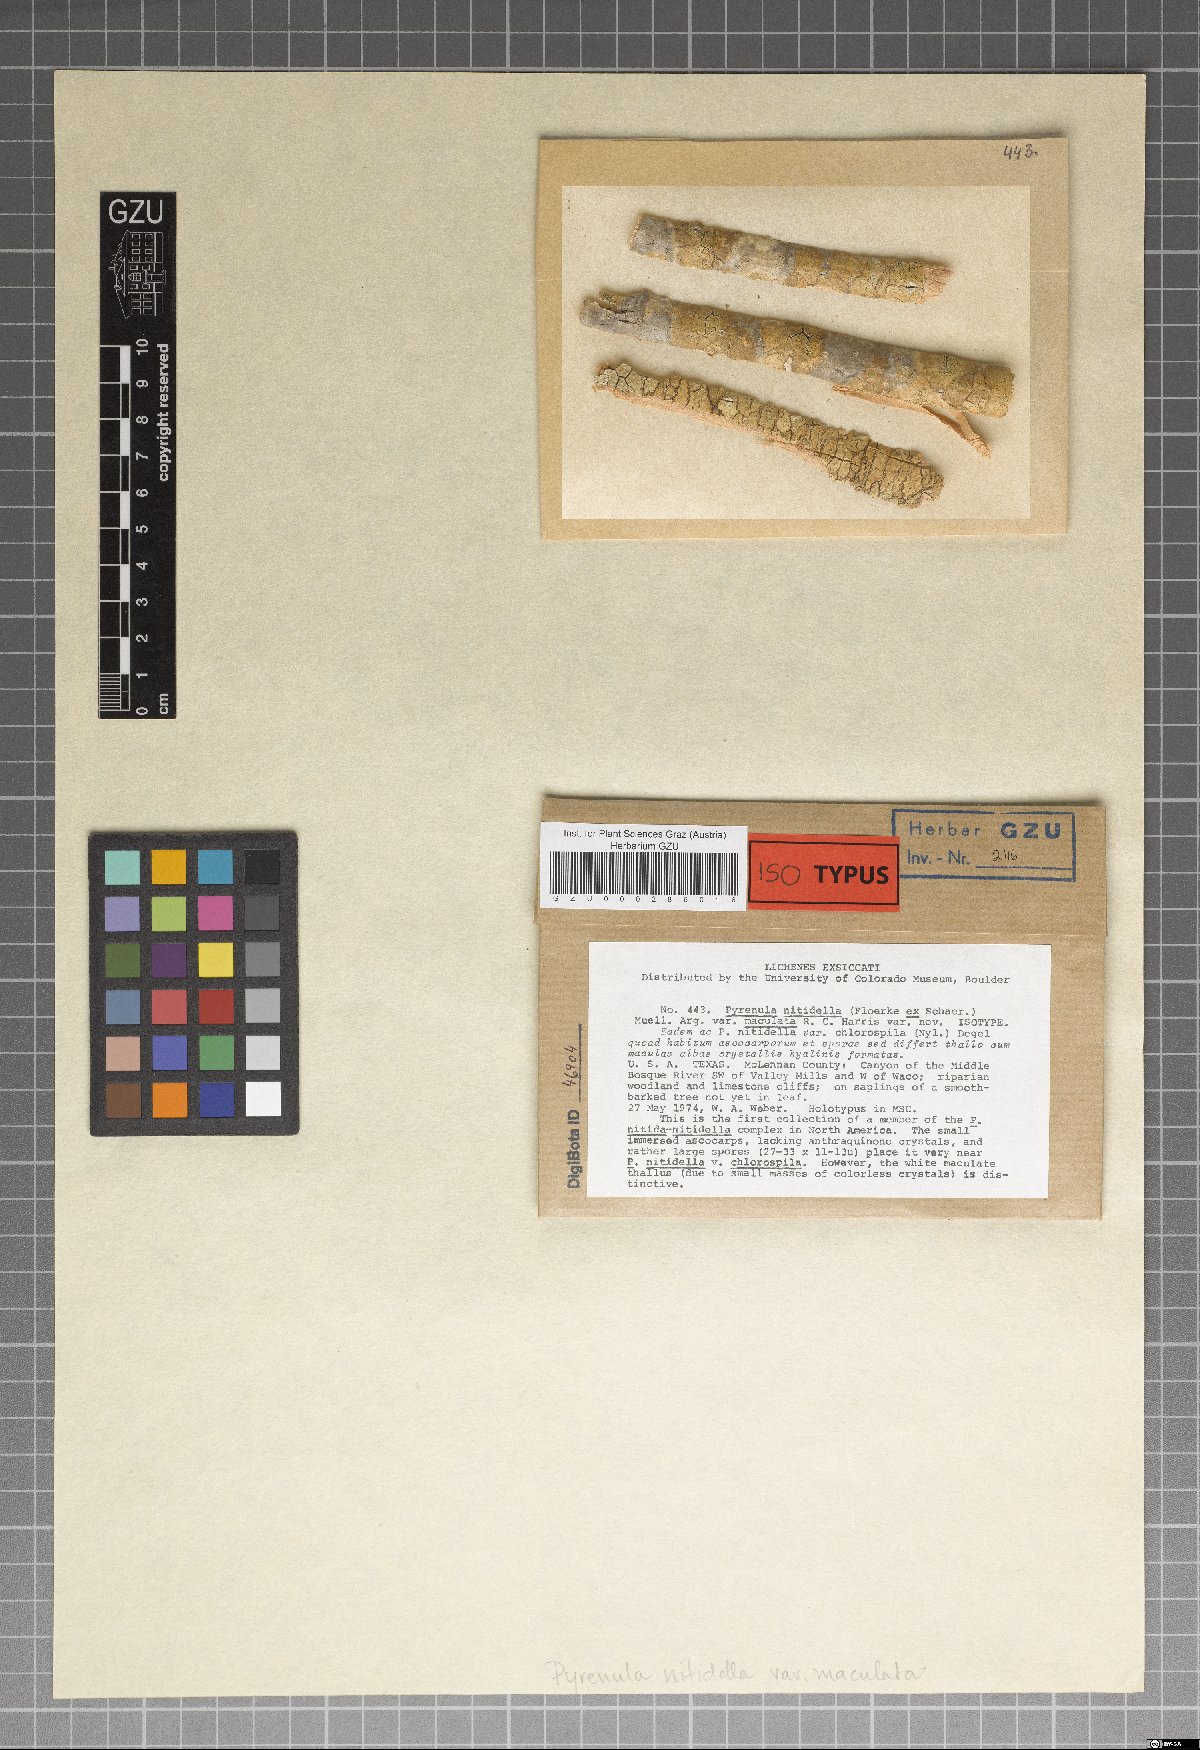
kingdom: Fungi
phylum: Ascomycota
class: Eurotiomycetes
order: Pyrenulales
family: Pyrenulaceae
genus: Pyrenula
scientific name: Pyrenula nitidella
